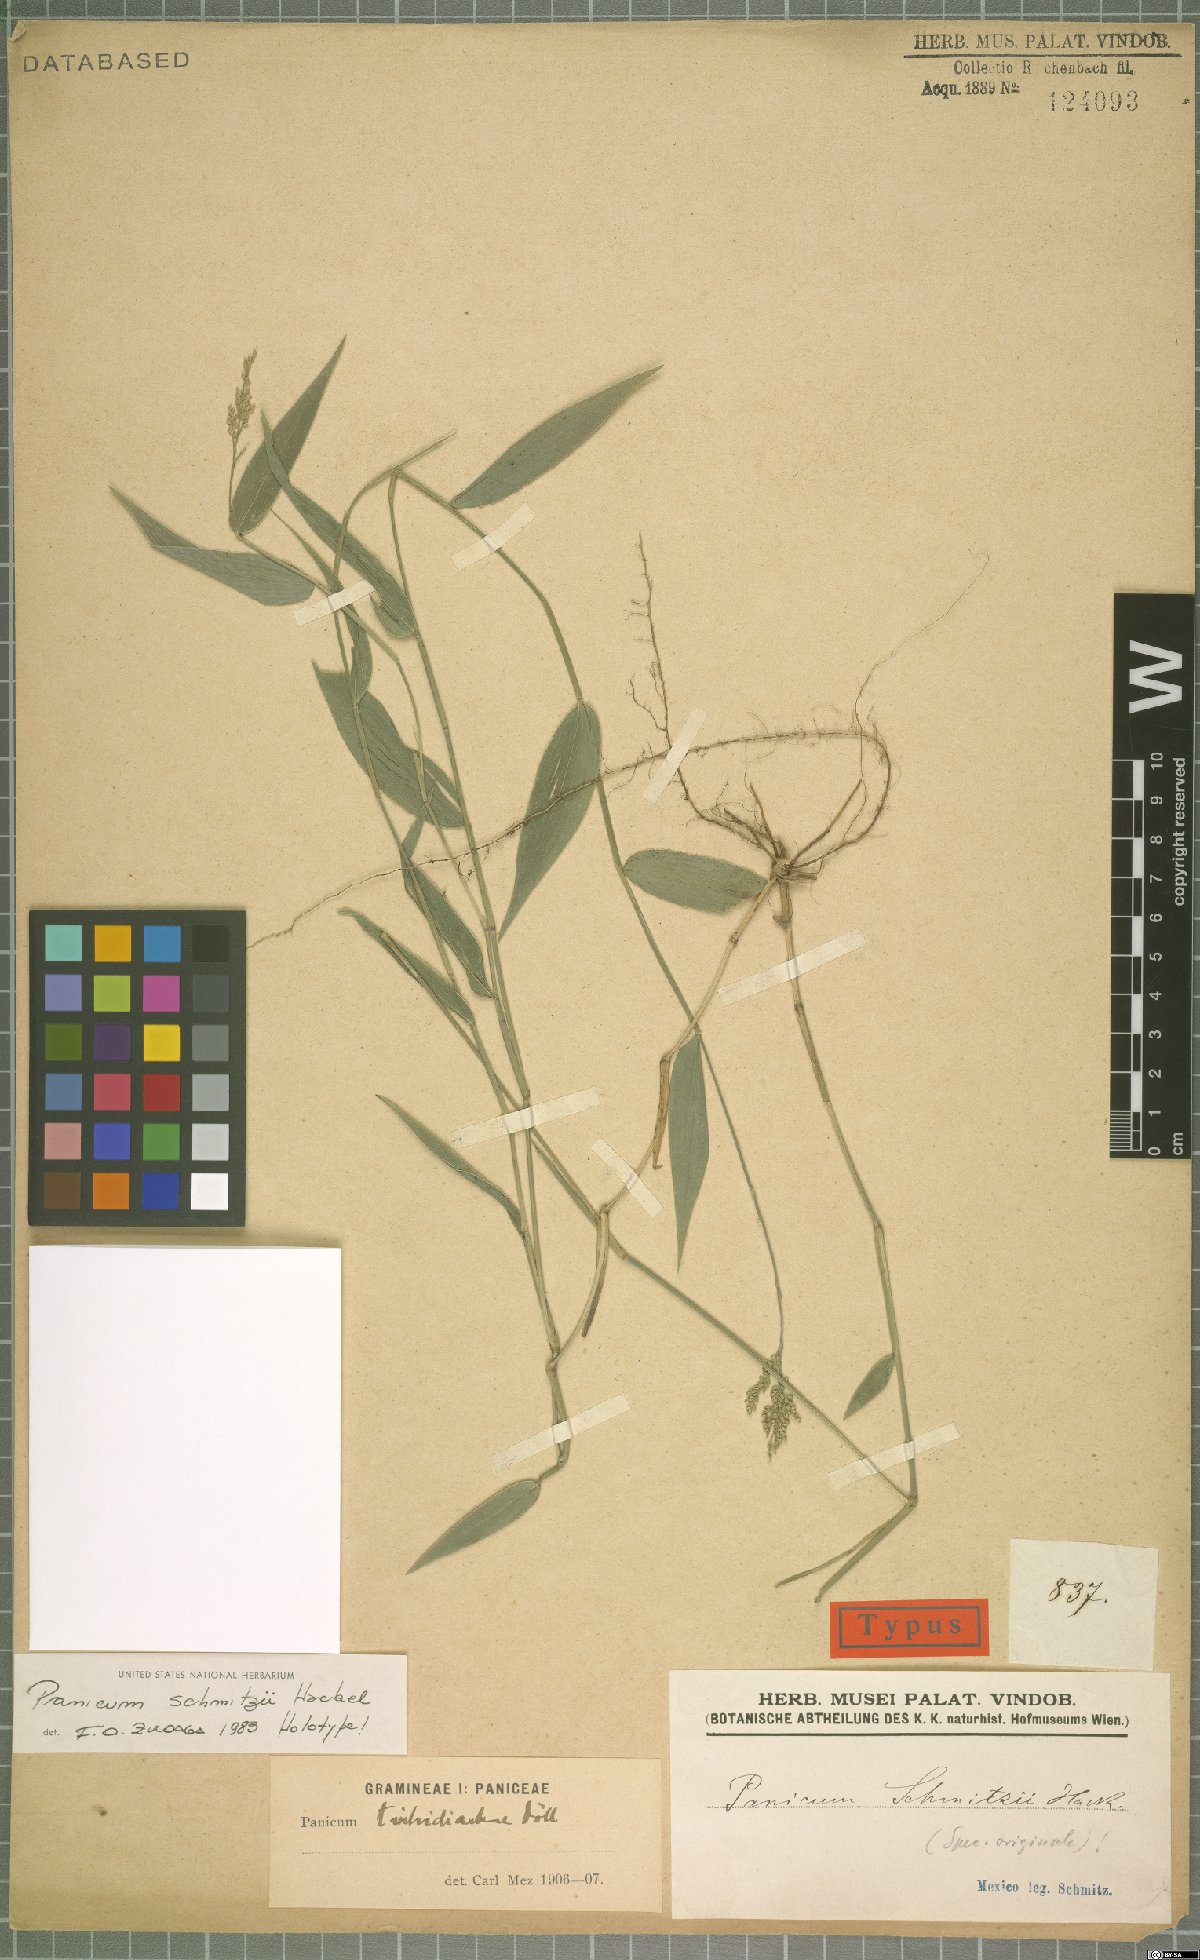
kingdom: Plantae
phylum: Tracheophyta
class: Liliopsida
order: Poales
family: Poaceae
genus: Morronea
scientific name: Morronea trichidiachnis
